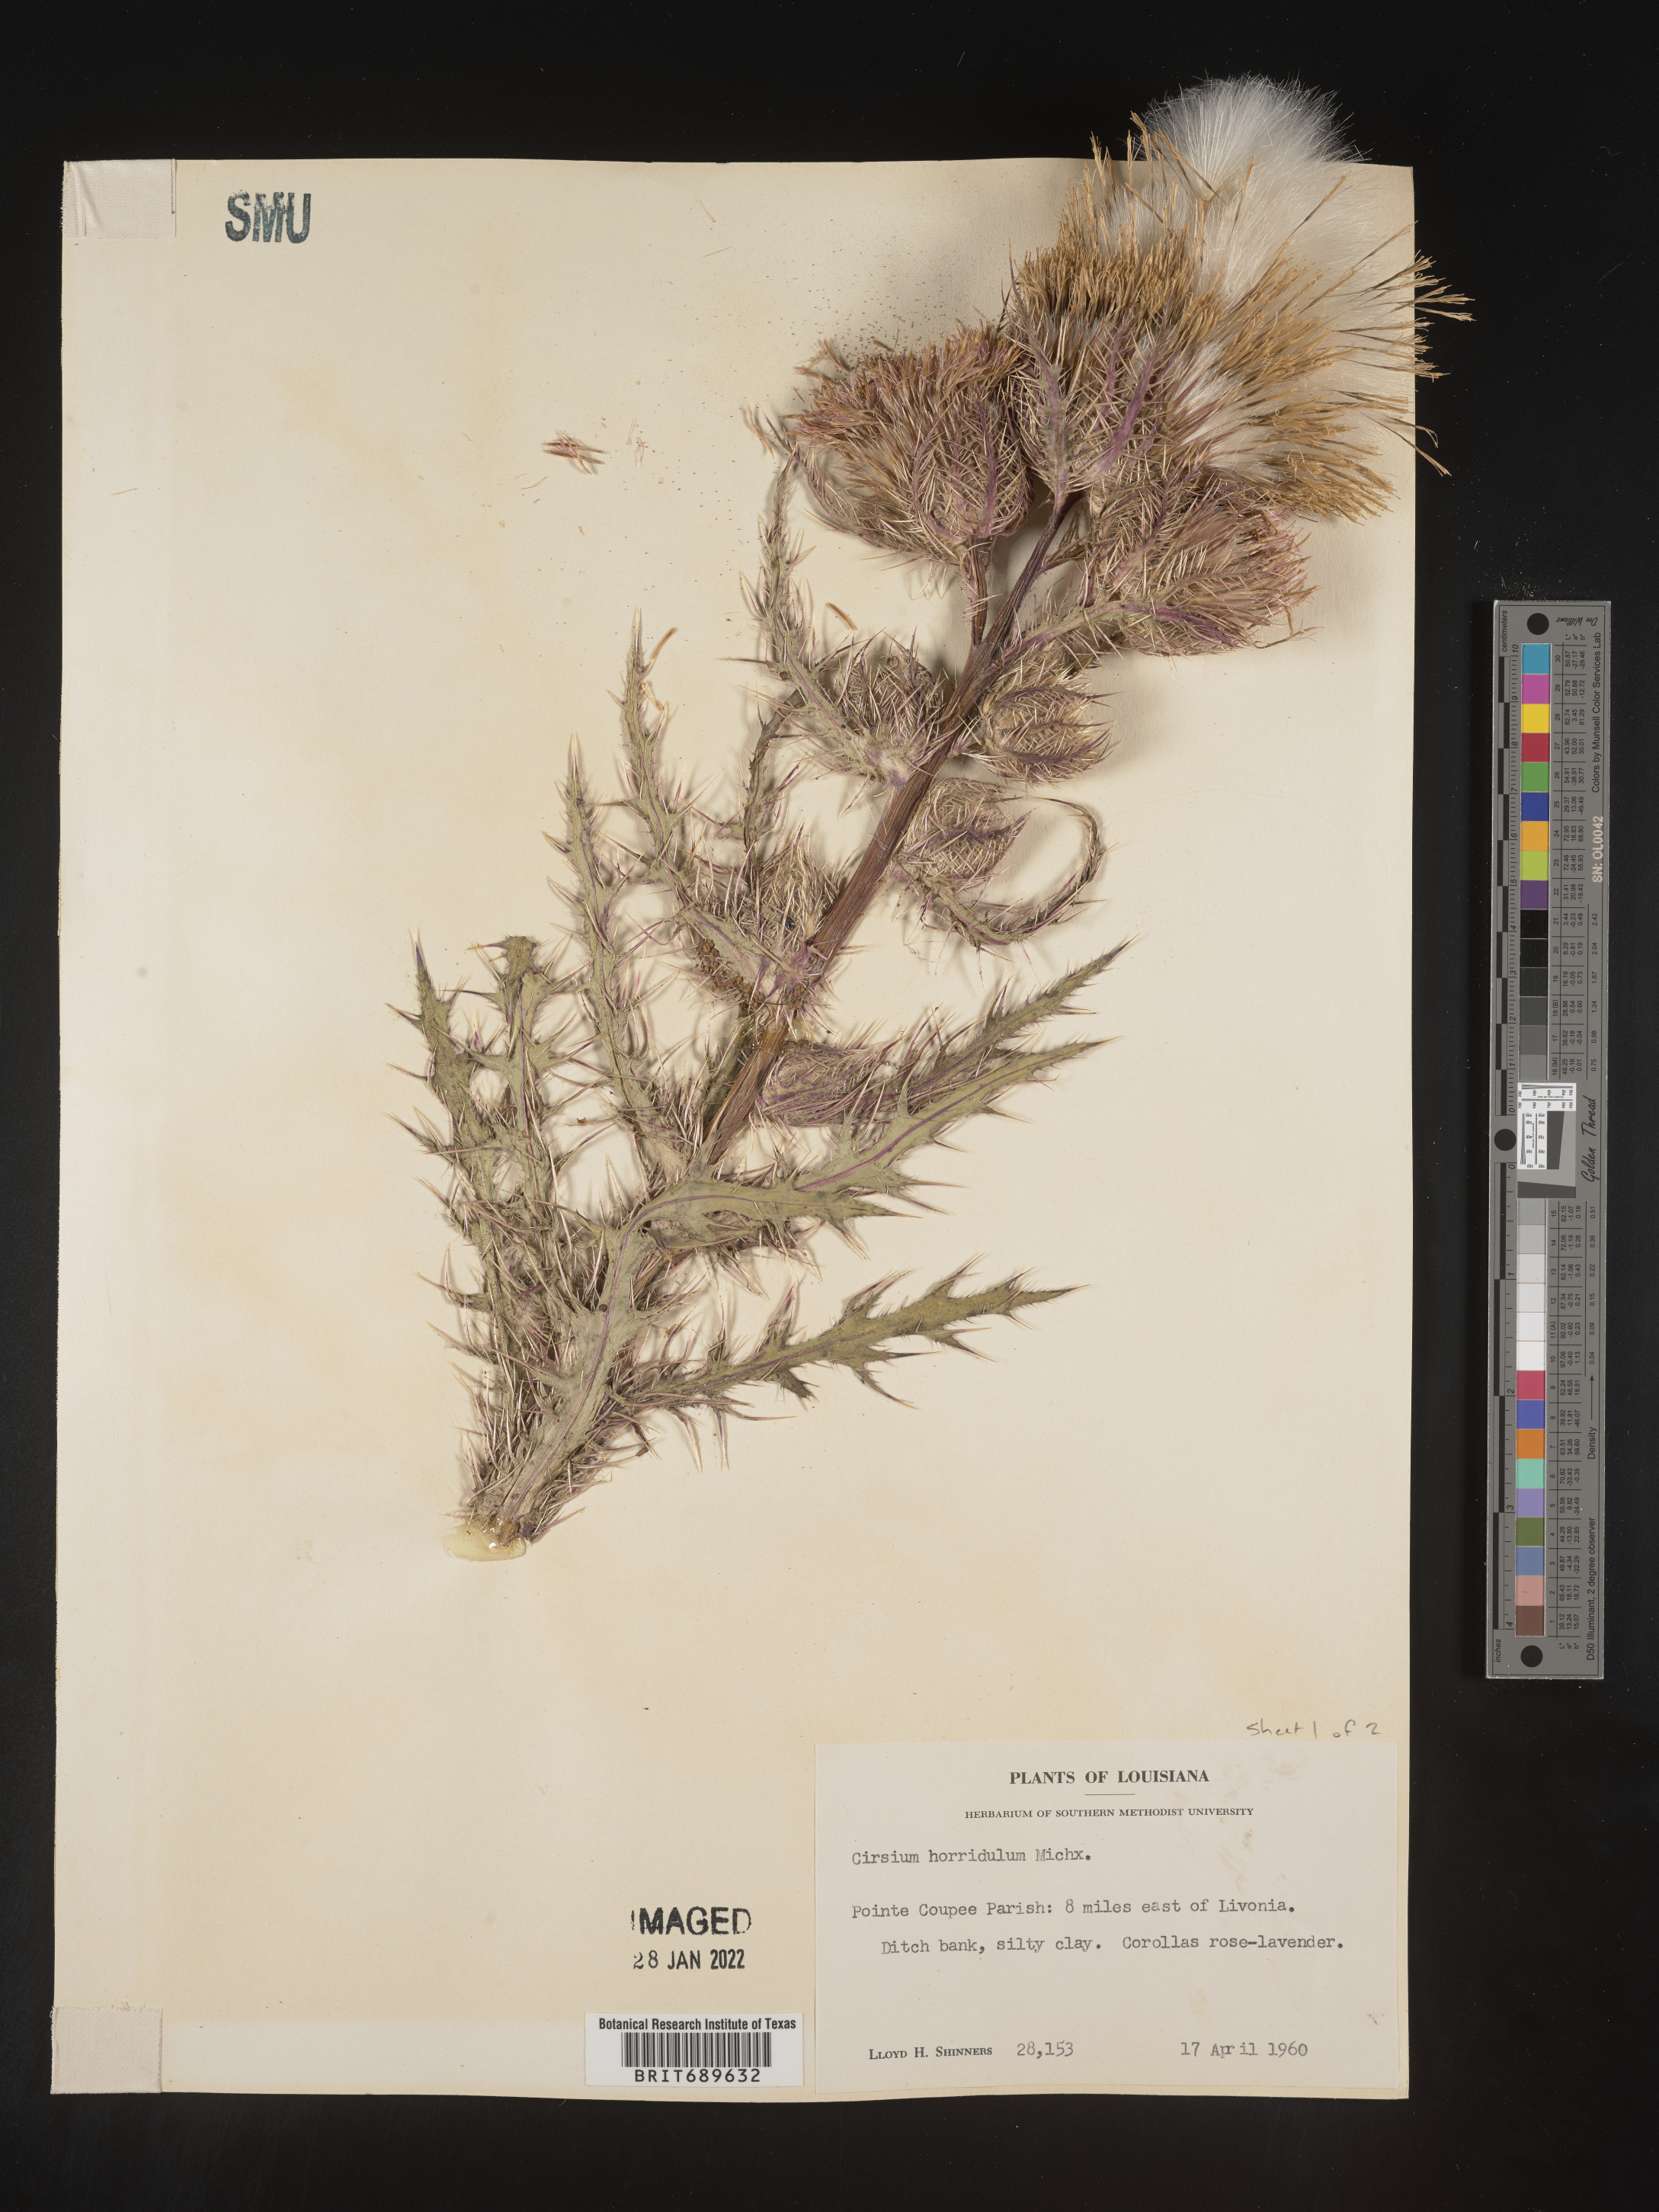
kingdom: Plantae
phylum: Tracheophyta
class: Magnoliopsida
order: Asterales
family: Asteraceae
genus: Cirsium
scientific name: Cirsium horridulum
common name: Bristly thistle
